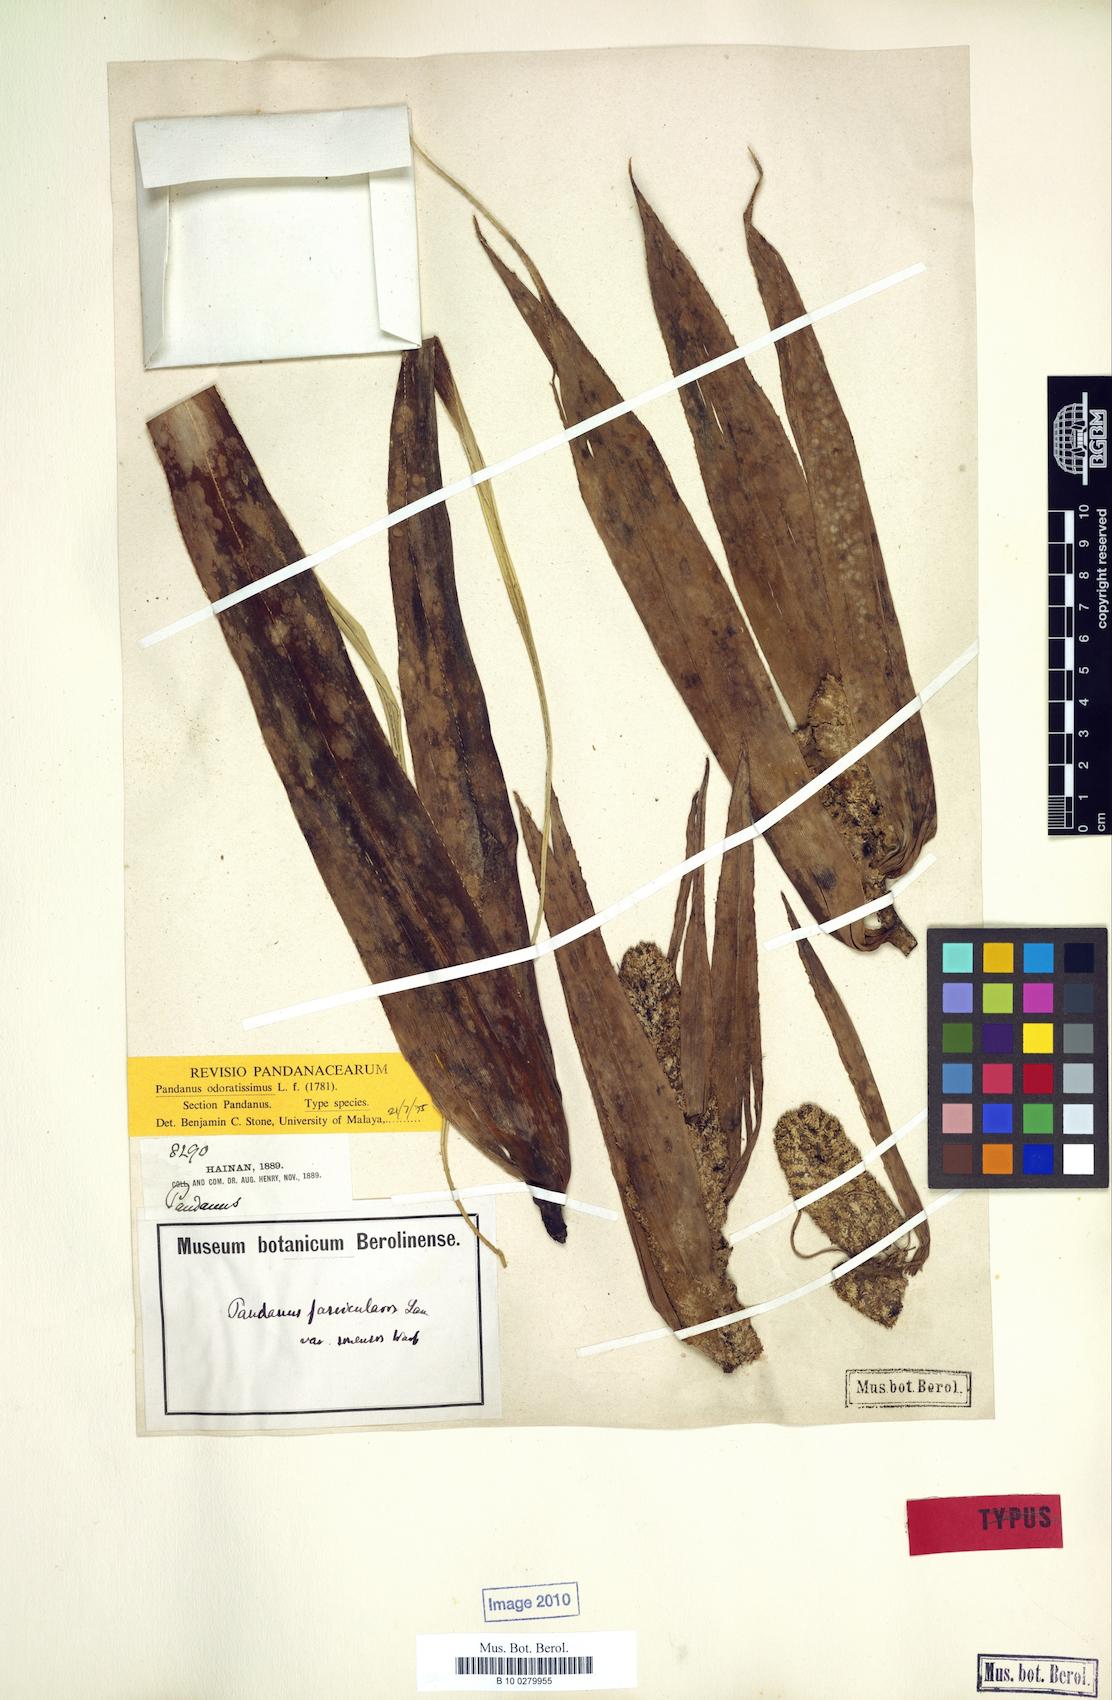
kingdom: Plantae
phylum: Tracheophyta
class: Liliopsida
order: Pandanales
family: Pandanaceae
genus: Pandanus
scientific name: Pandanus odorifer
